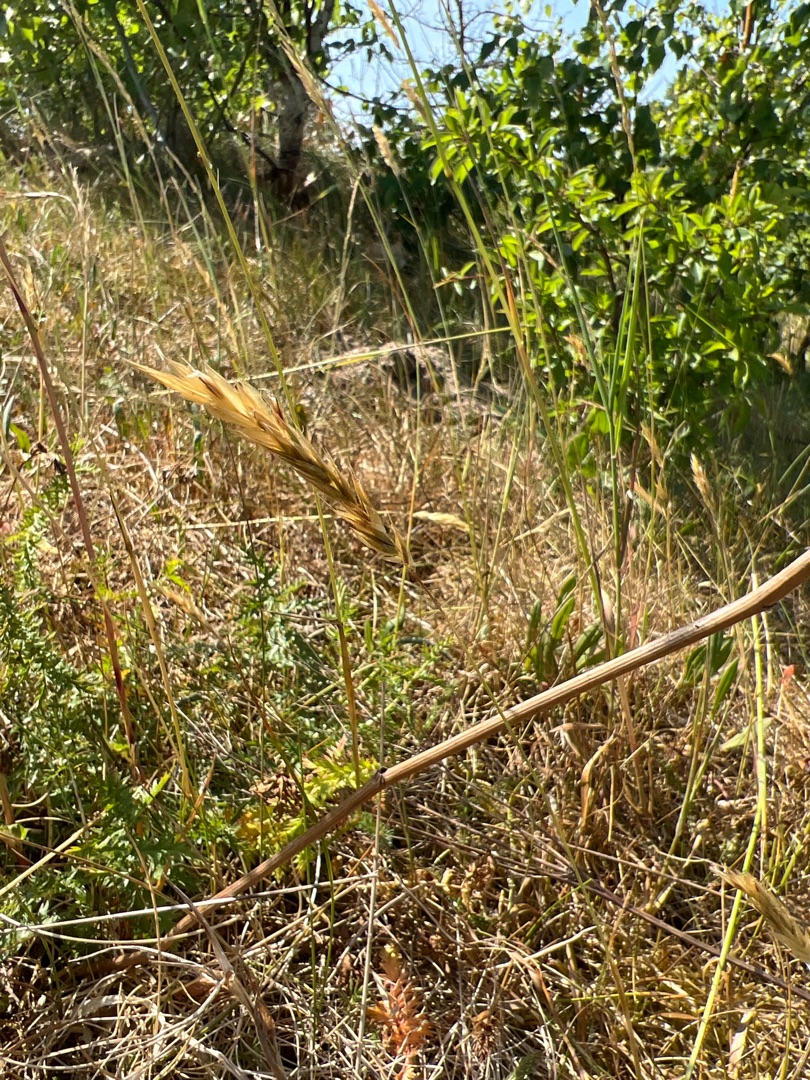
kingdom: Plantae
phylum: Tracheophyta
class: Liliopsida
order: Poales
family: Poaceae
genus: Anthoxanthum
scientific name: Anthoxanthum odoratum
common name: Vellugtende gulaks
